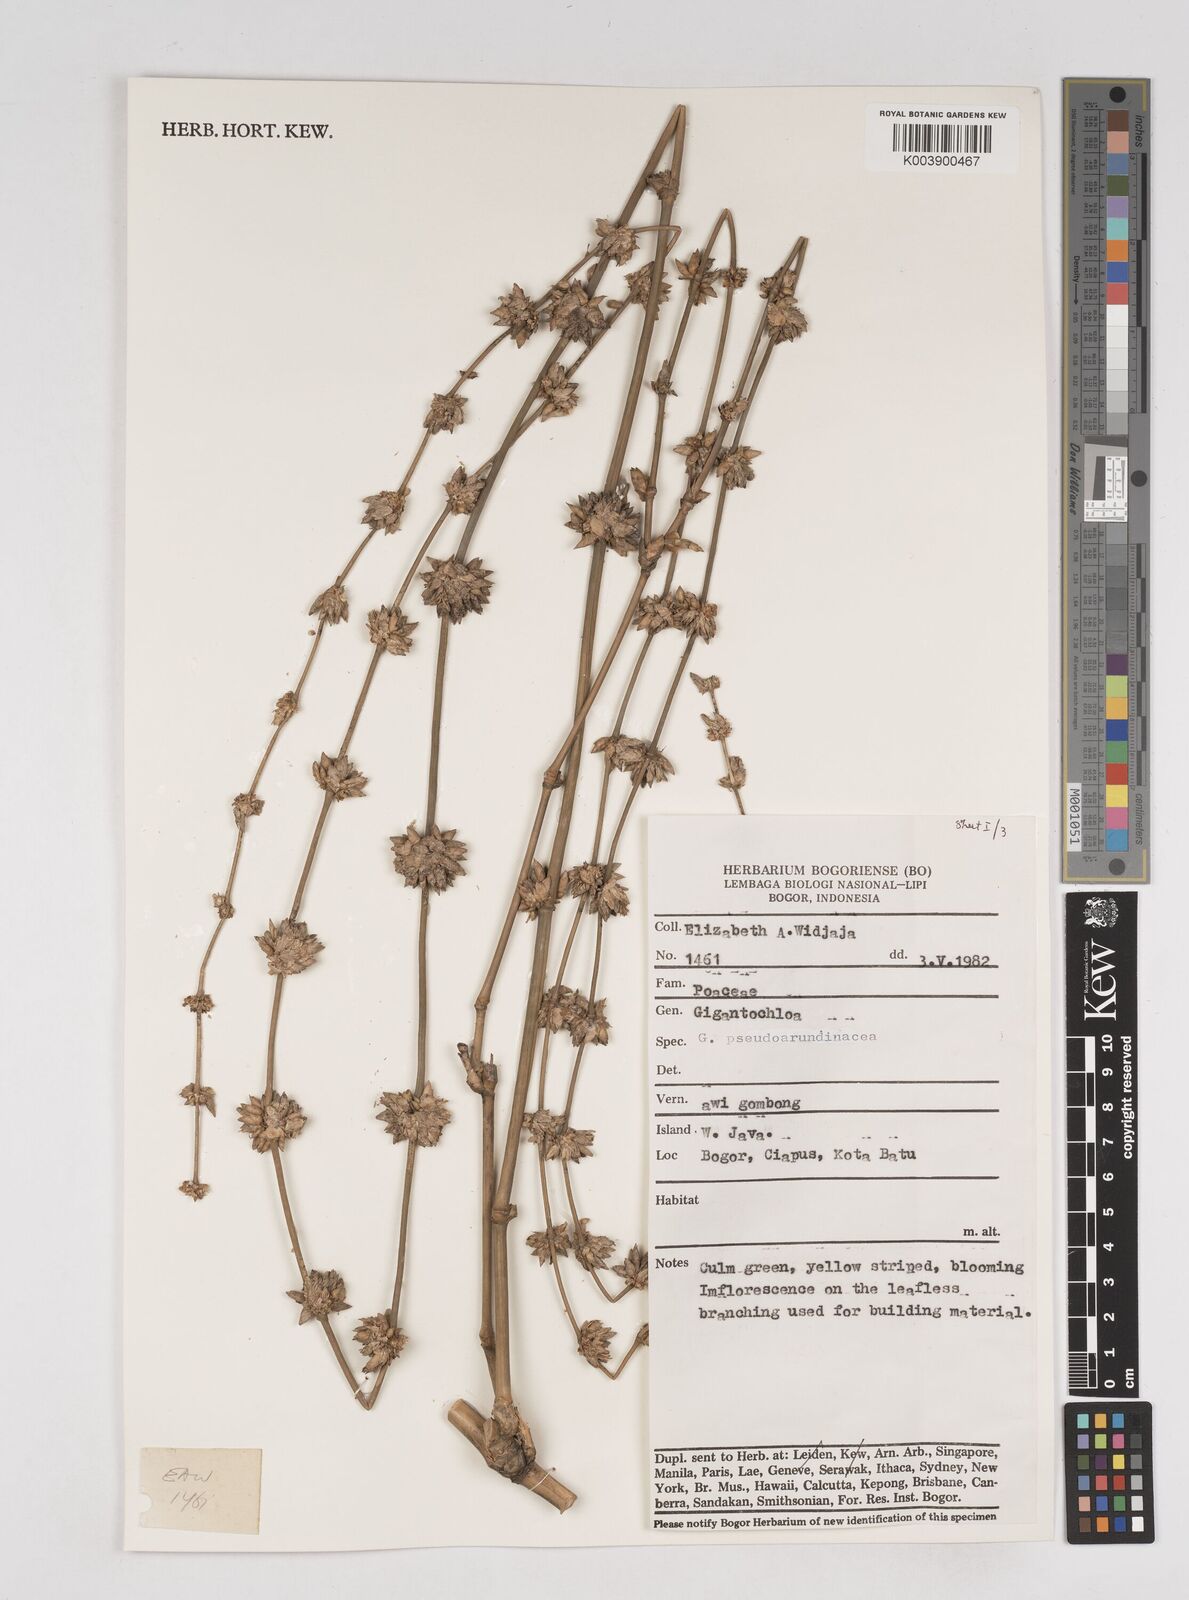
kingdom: Plantae
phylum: Tracheophyta
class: Liliopsida
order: Poales
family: Poaceae
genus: Gigantochloa
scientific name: Gigantochloa verticillata
